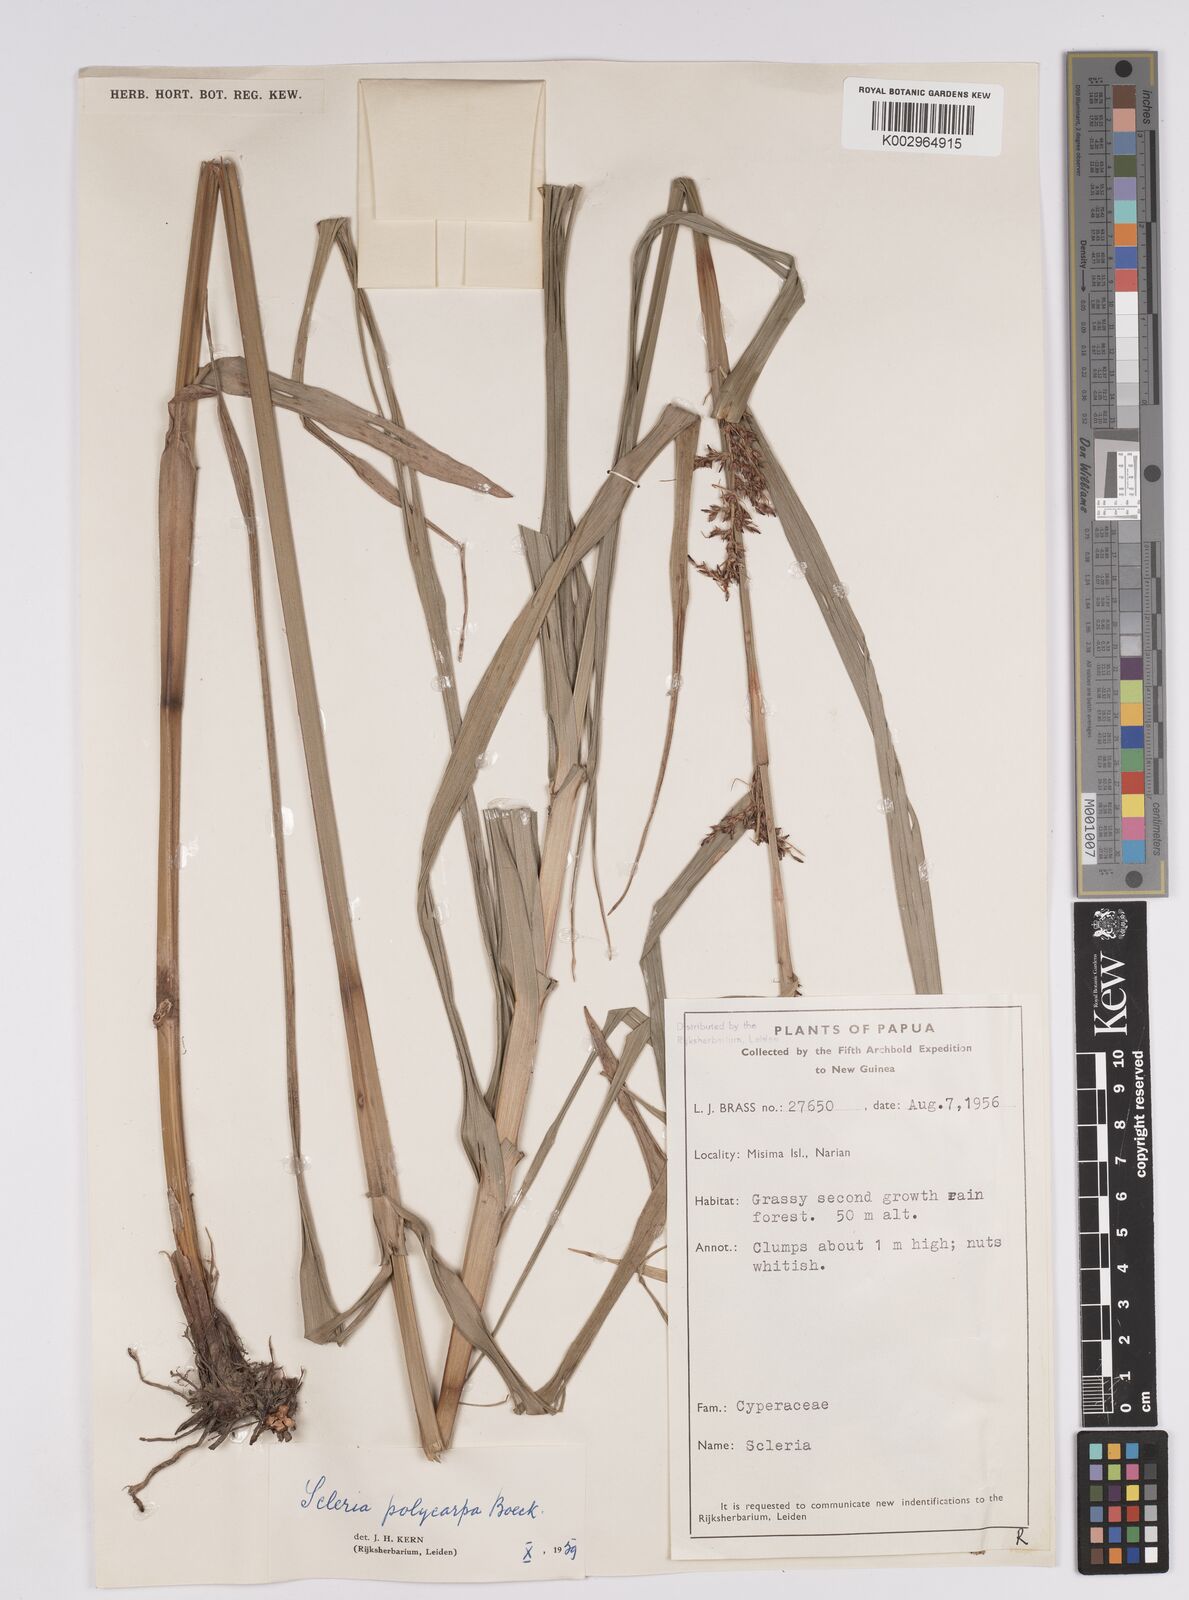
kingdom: Plantae
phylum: Tracheophyta
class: Liliopsida
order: Poales
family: Cyperaceae
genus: Scleria
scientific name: Scleria polycarpa
